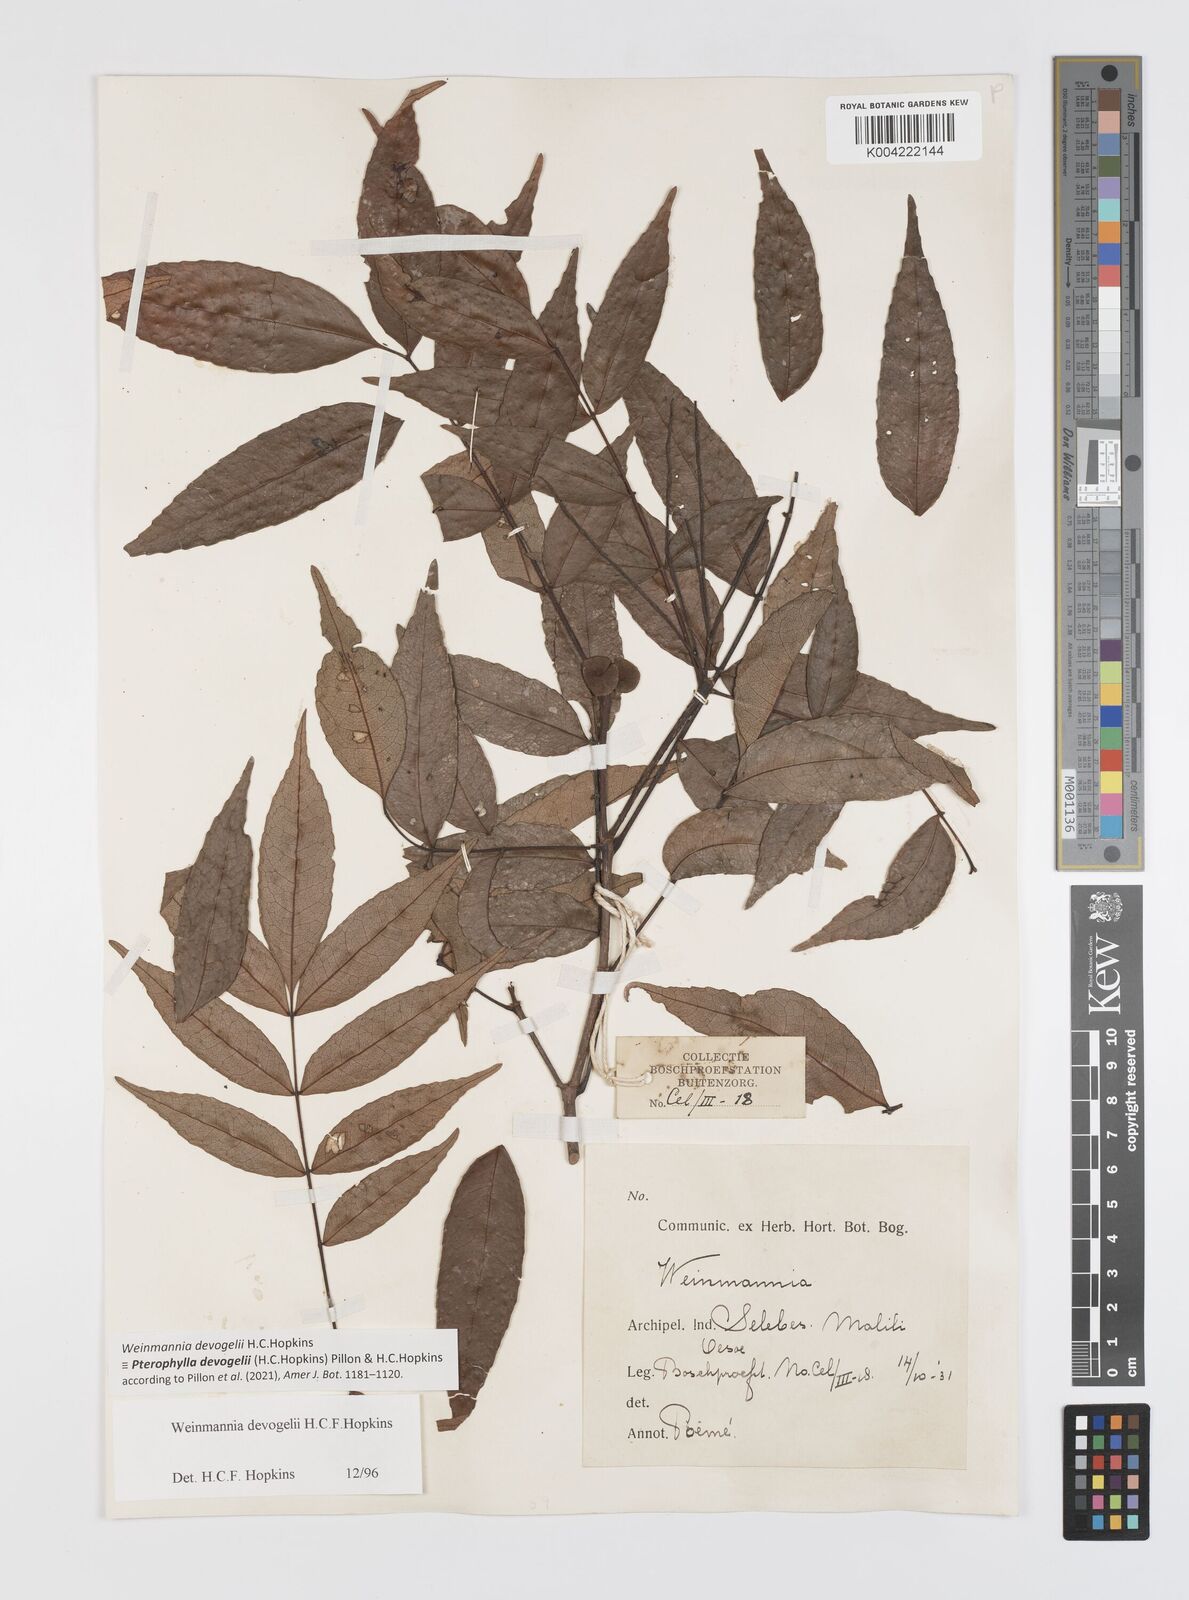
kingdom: Plantae
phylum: Tracheophyta
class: Magnoliopsida
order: Oxalidales
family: Cunoniaceae
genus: Pterophylla
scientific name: Pterophylla devogelii
